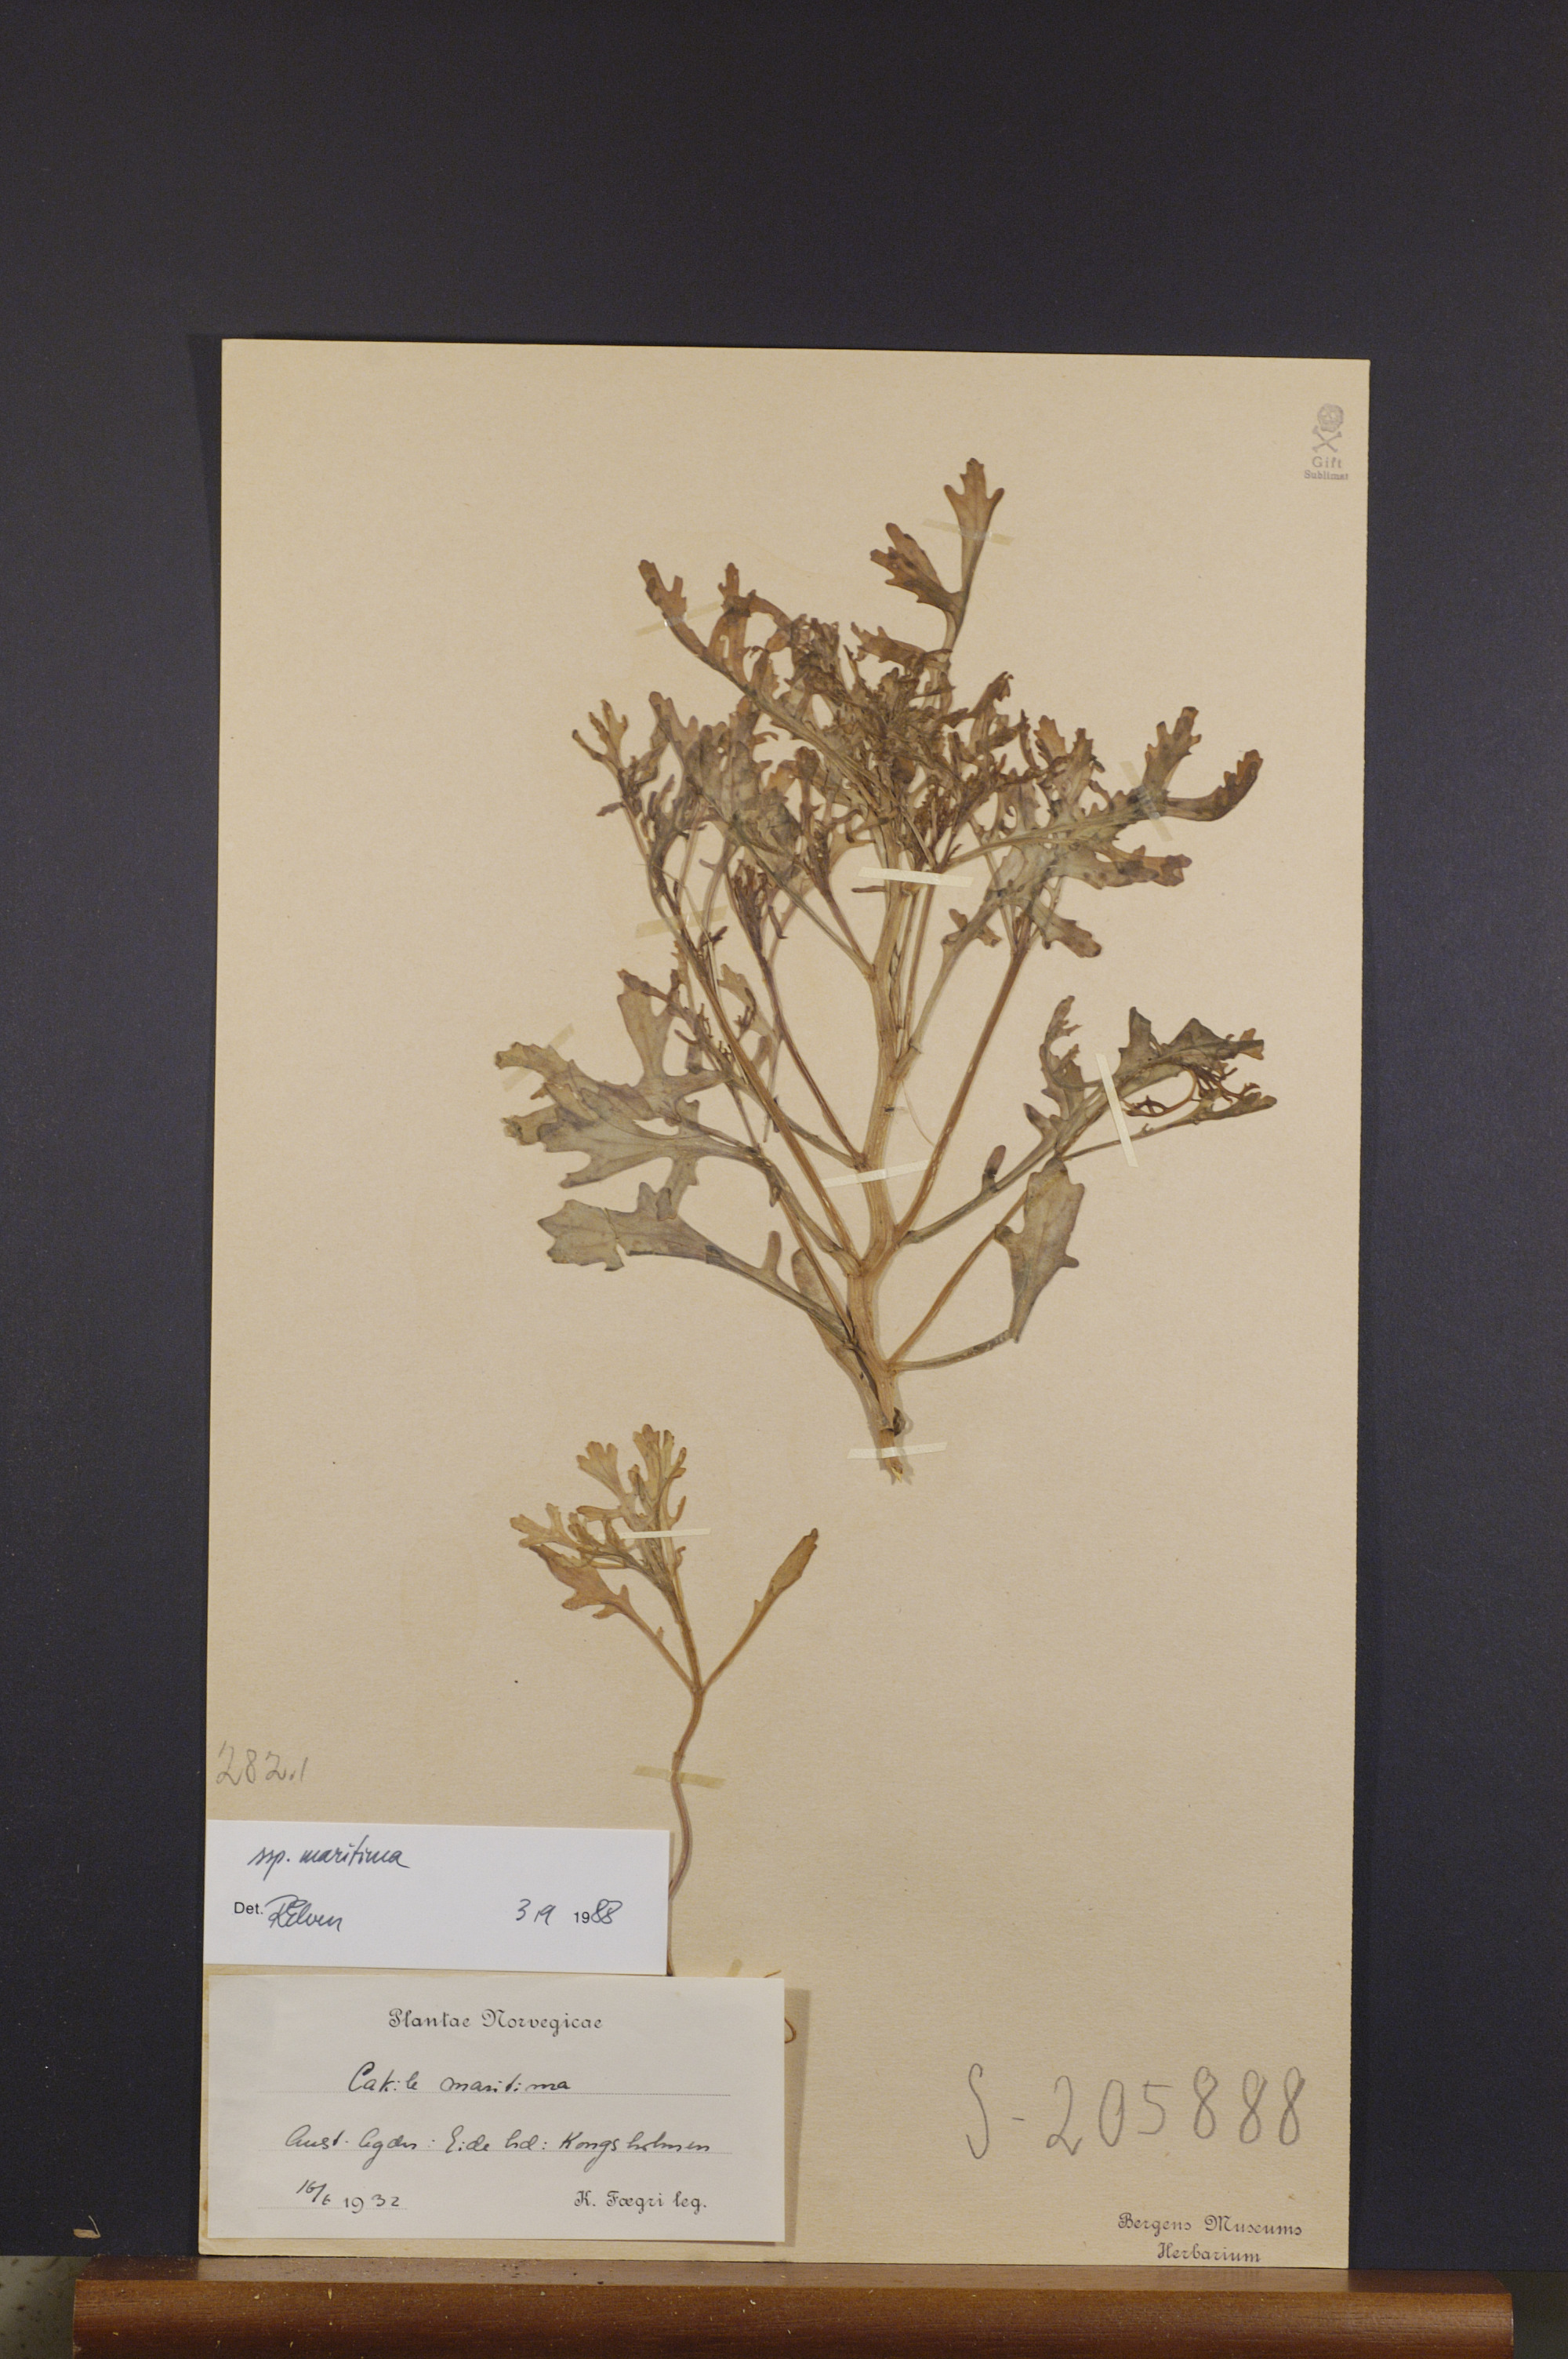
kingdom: Plantae
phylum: Tracheophyta
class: Magnoliopsida
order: Brassicales
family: Brassicaceae
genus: Cakile
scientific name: Cakile maritima
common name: Sea rocket
